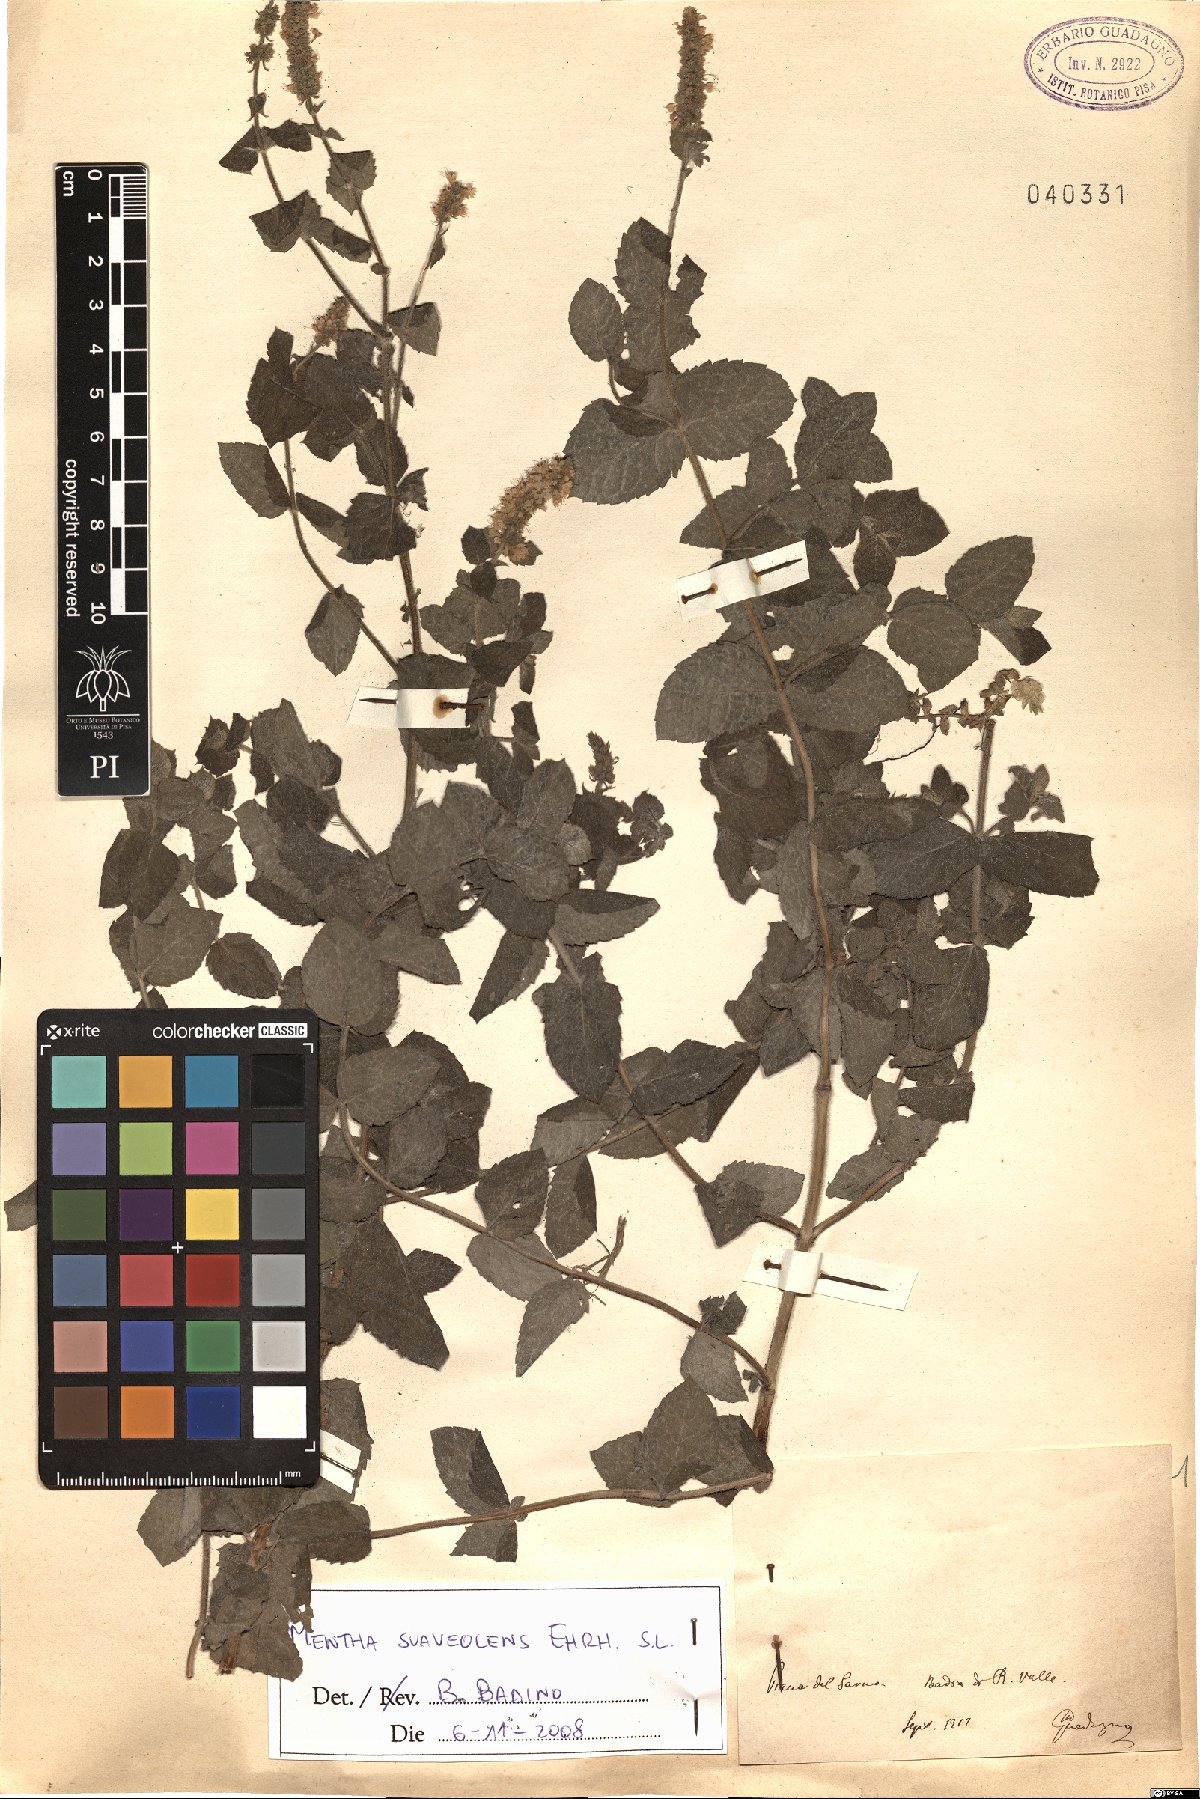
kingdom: Plantae
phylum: Tracheophyta
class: Magnoliopsida
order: Lamiales
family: Lamiaceae
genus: Mentha
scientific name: Mentha suaveolens
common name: Apple mint
